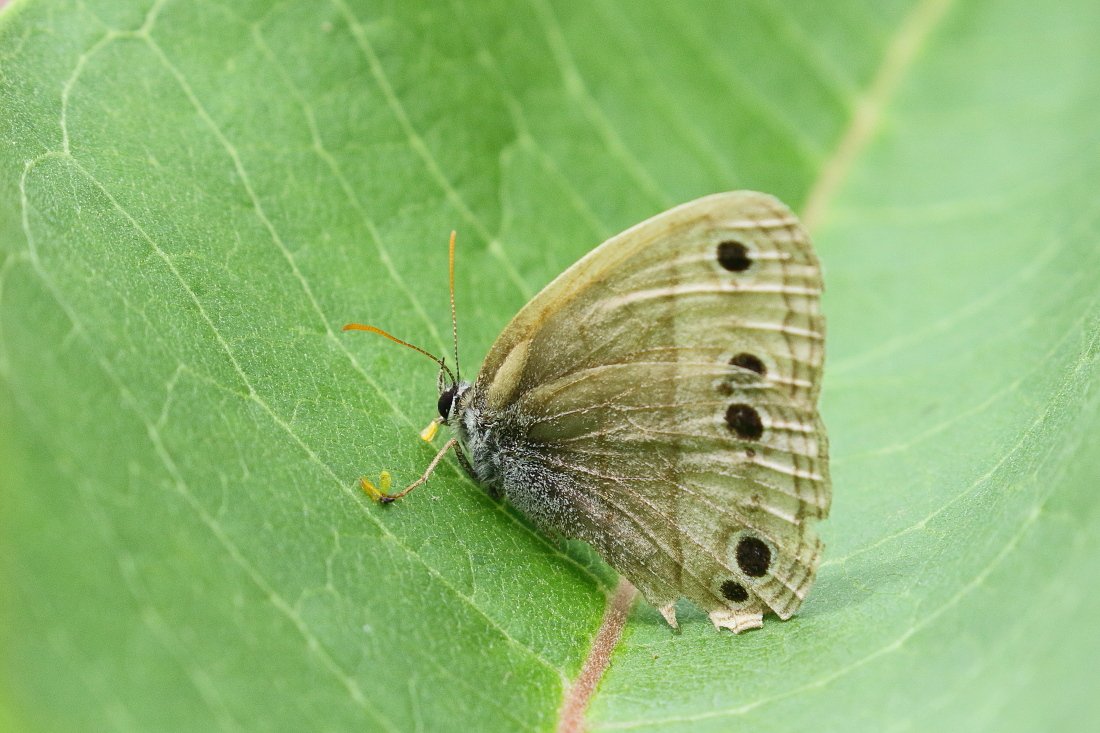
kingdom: Animalia
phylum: Arthropoda
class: Insecta
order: Lepidoptera
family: Nymphalidae
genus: Euptychia
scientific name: Euptychia cymela
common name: Little Wood Satyr
